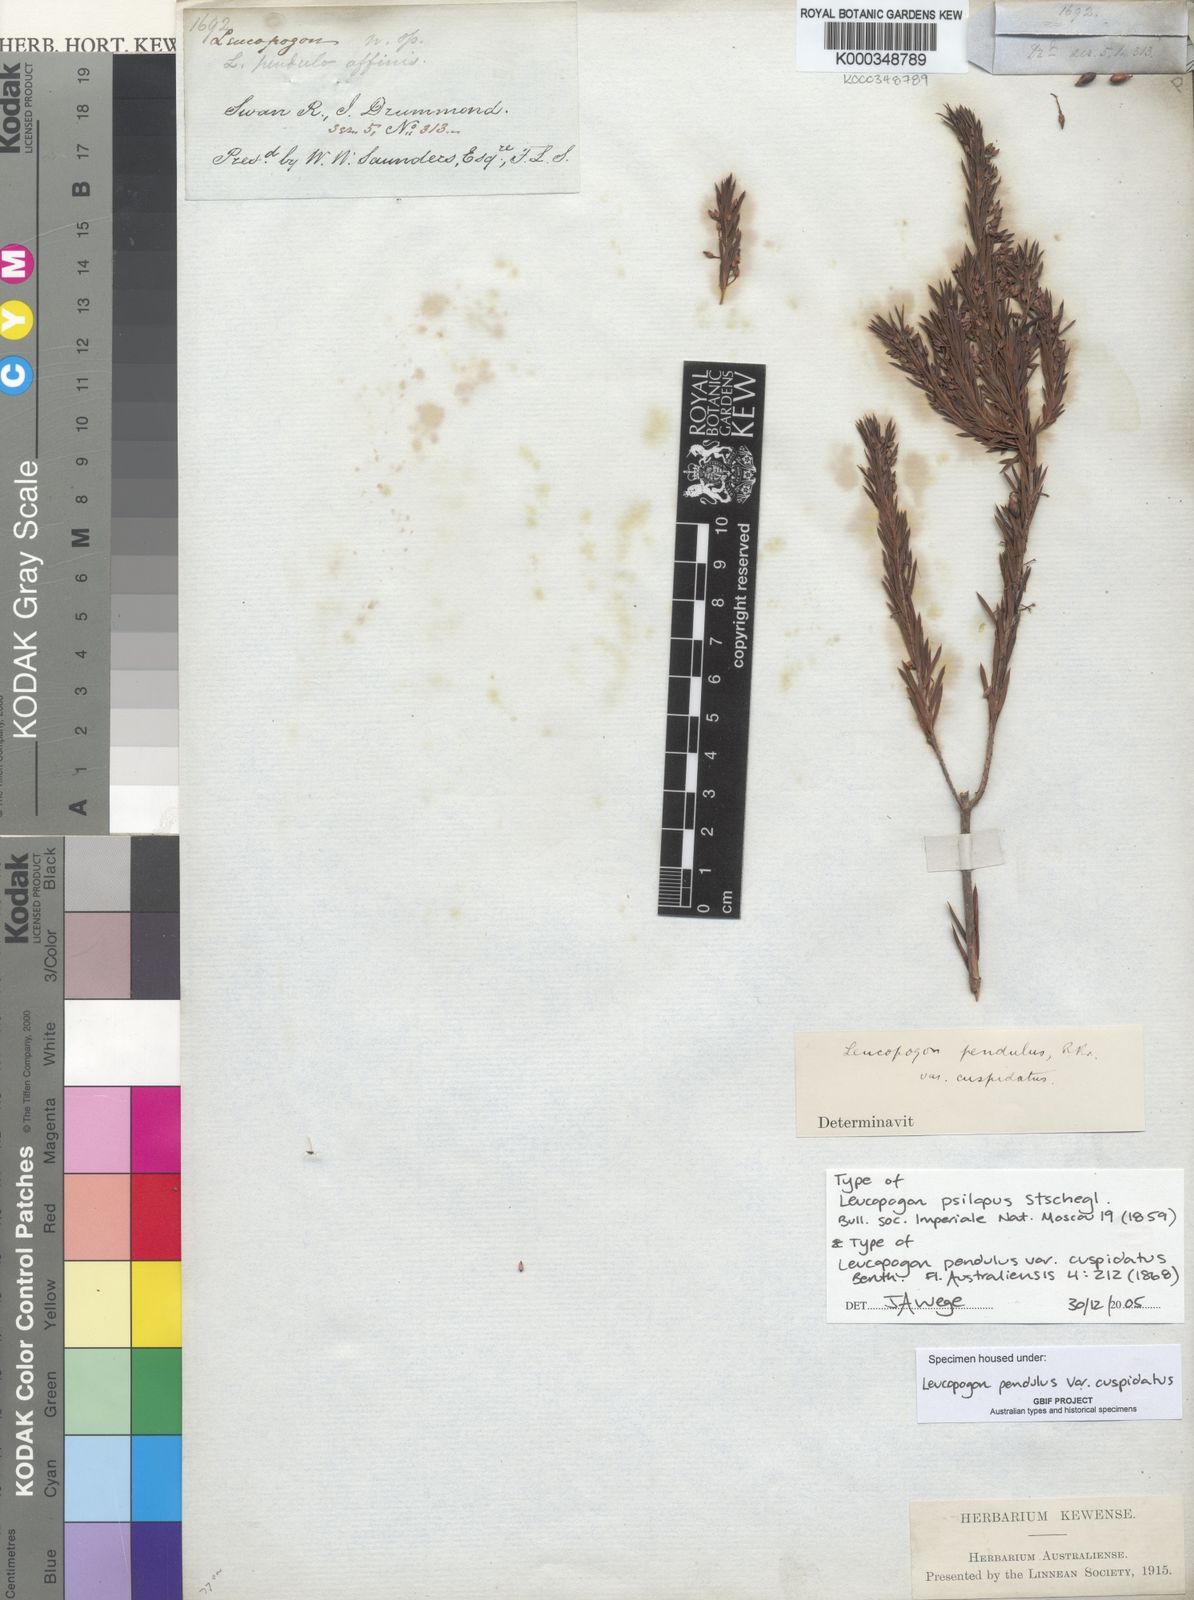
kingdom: Plantae
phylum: Tracheophyta
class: Magnoliopsida
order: Ericales
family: Ericaceae
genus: Styphelia
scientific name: Styphelia pendula
